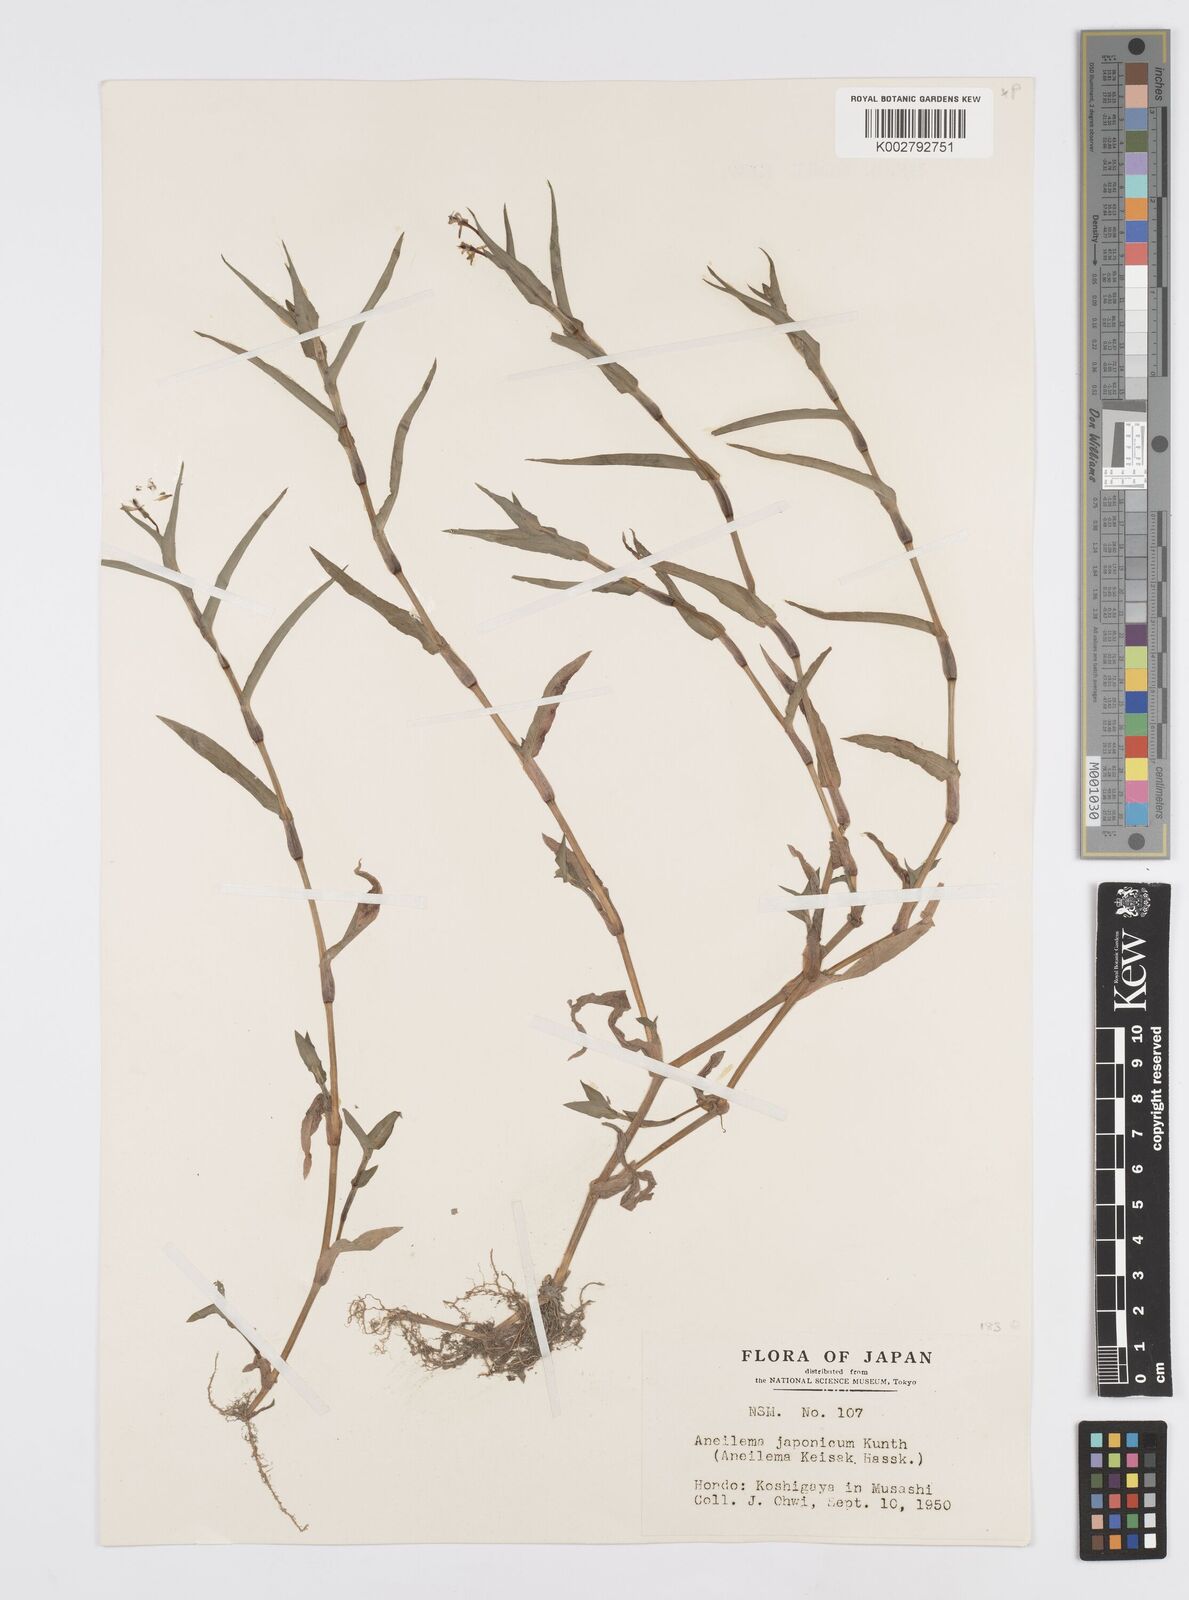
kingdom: Plantae
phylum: Tracheophyta
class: Liliopsida
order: Commelinales
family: Commelinaceae
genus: Murdannia
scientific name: Murdannia keisak
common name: Wartremoving herb
